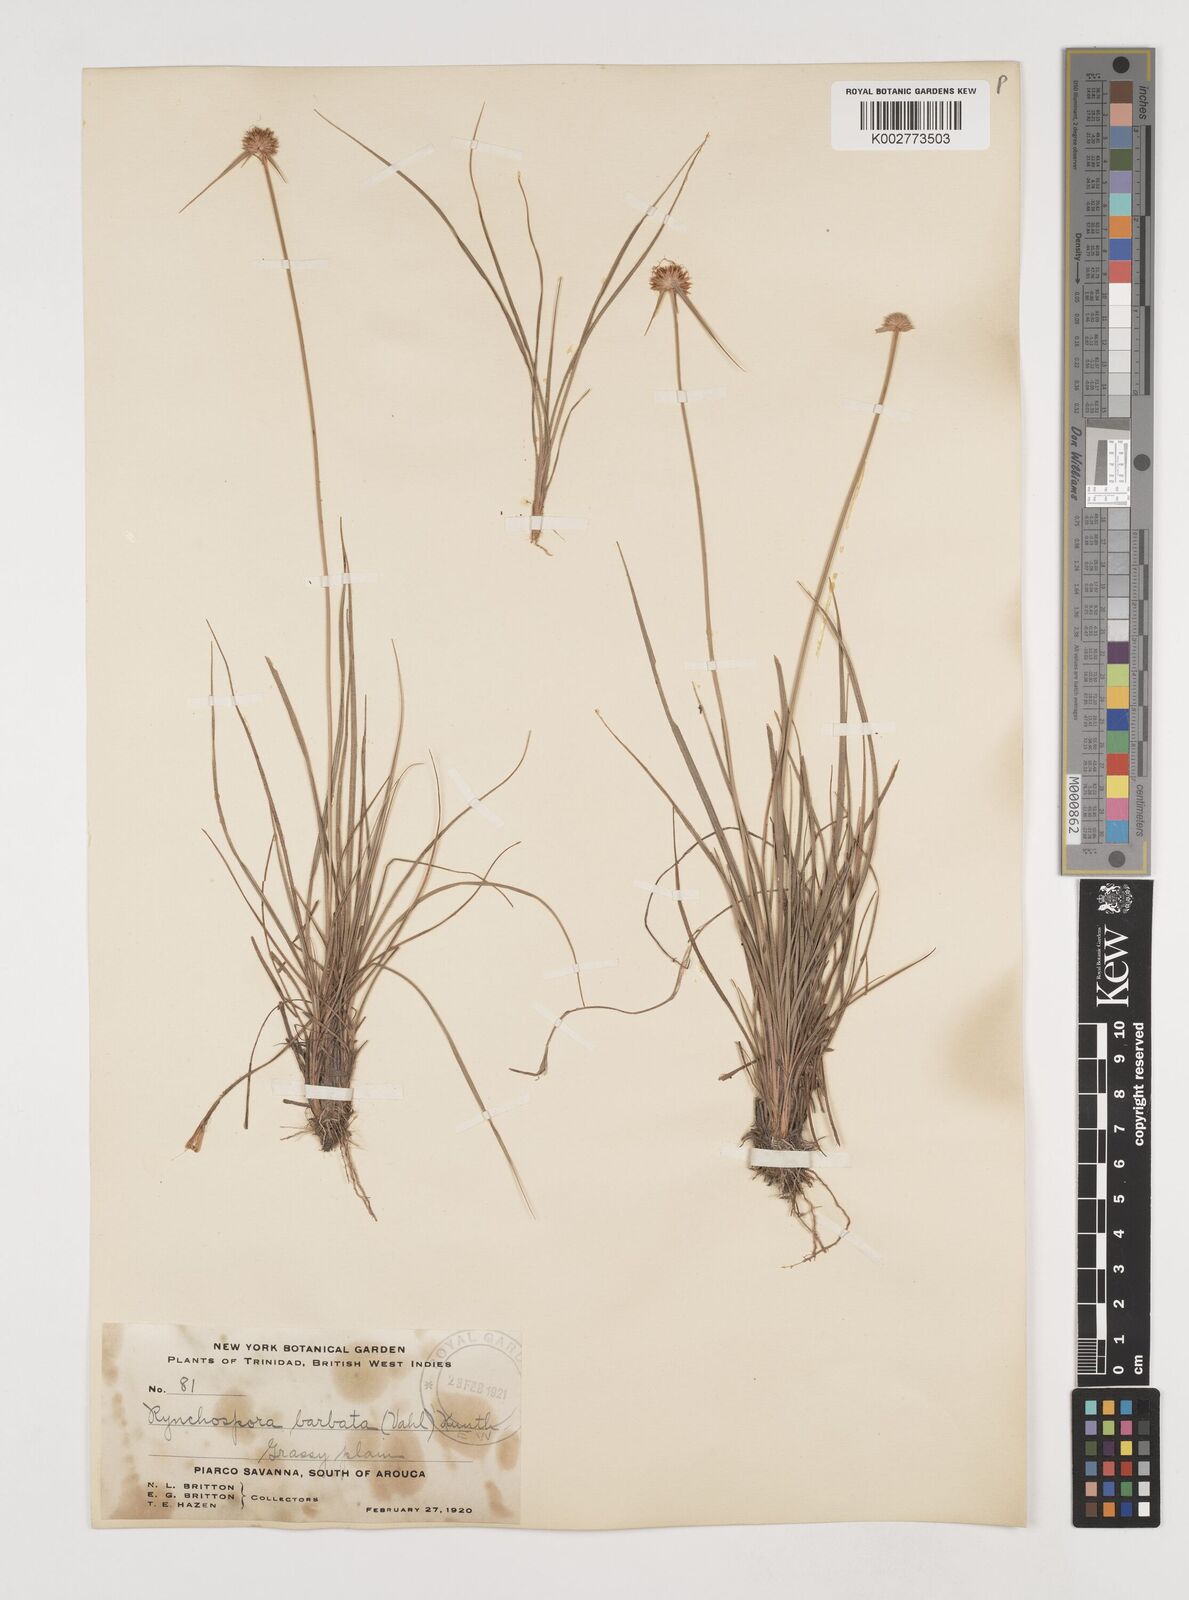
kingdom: Plantae
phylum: Tracheophyta
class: Liliopsida
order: Poales
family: Cyperaceae
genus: Rhynchospora
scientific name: Rhynchospora barbata
